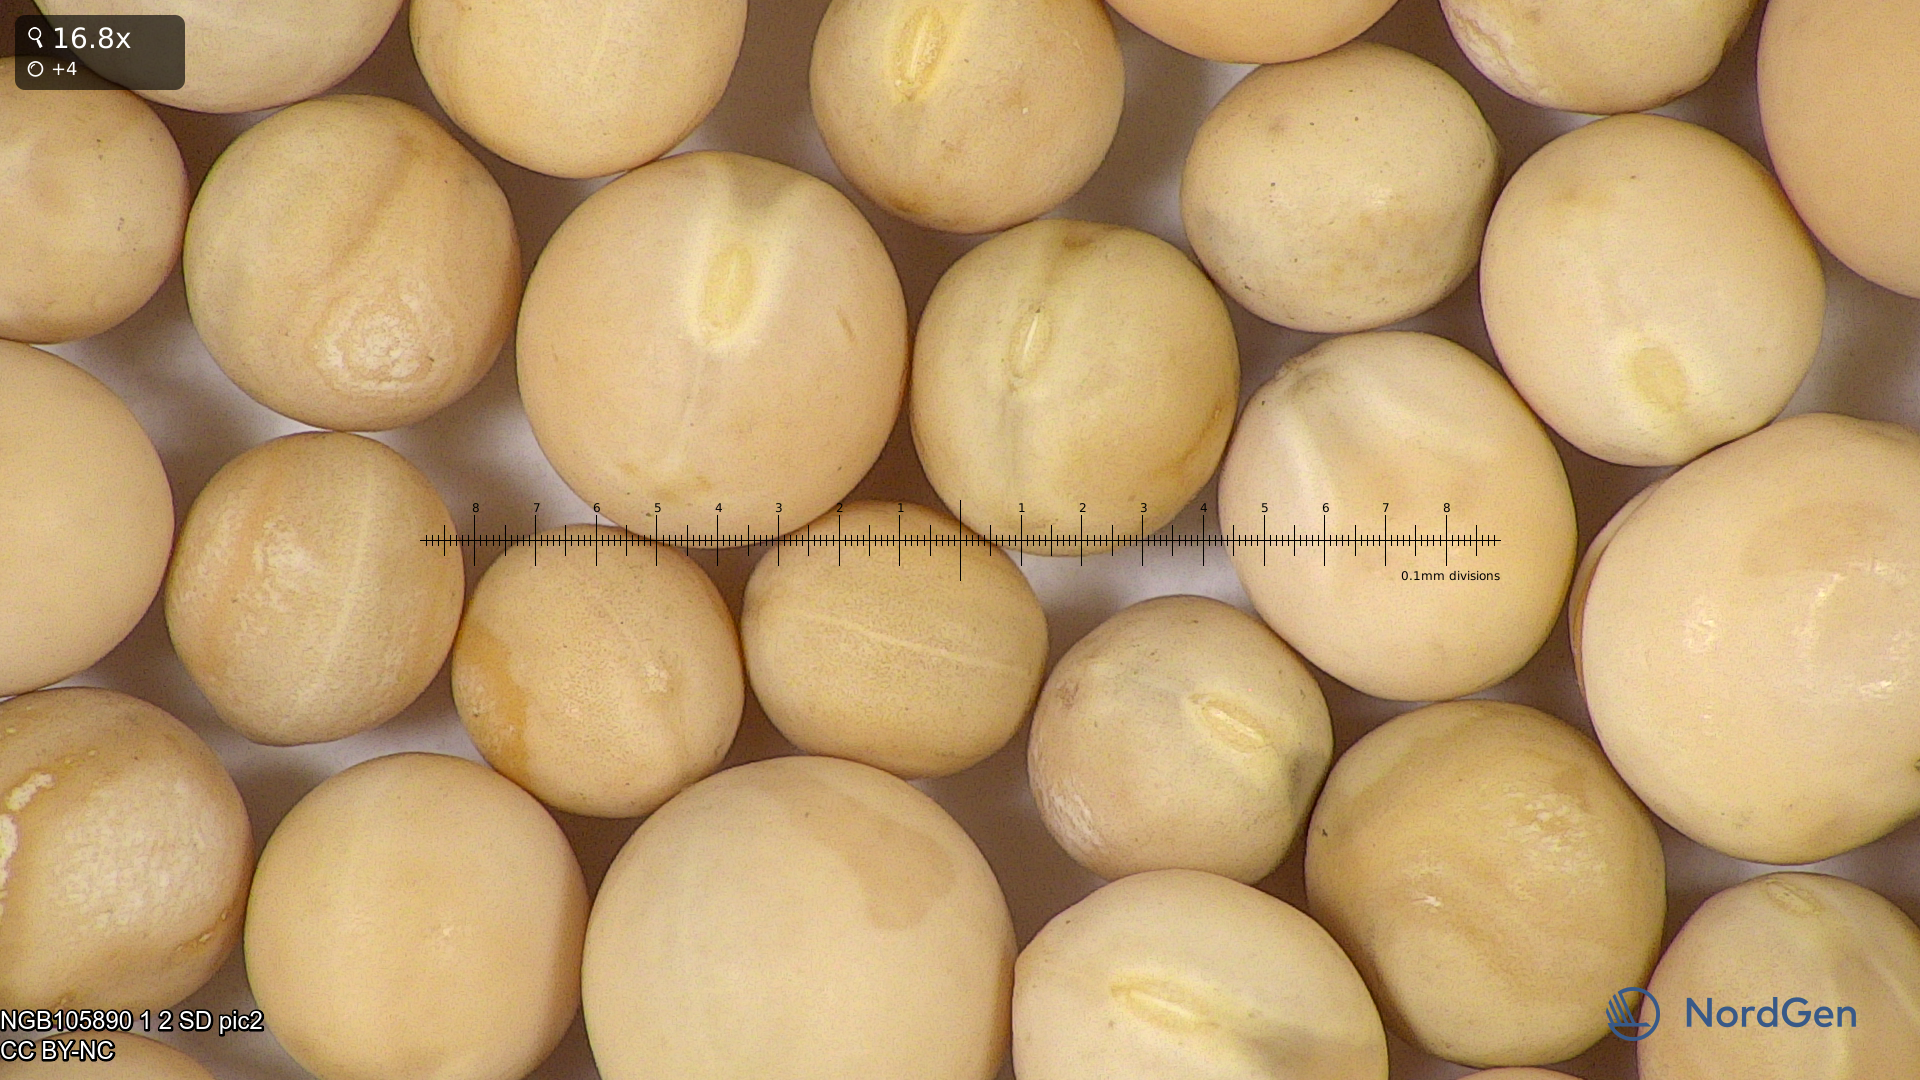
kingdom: Plantae
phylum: Tracheophyta
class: Magnoliopsida
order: Fabales
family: Fabaceae
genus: Lathyrus
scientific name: Lathyrus oleraceus
